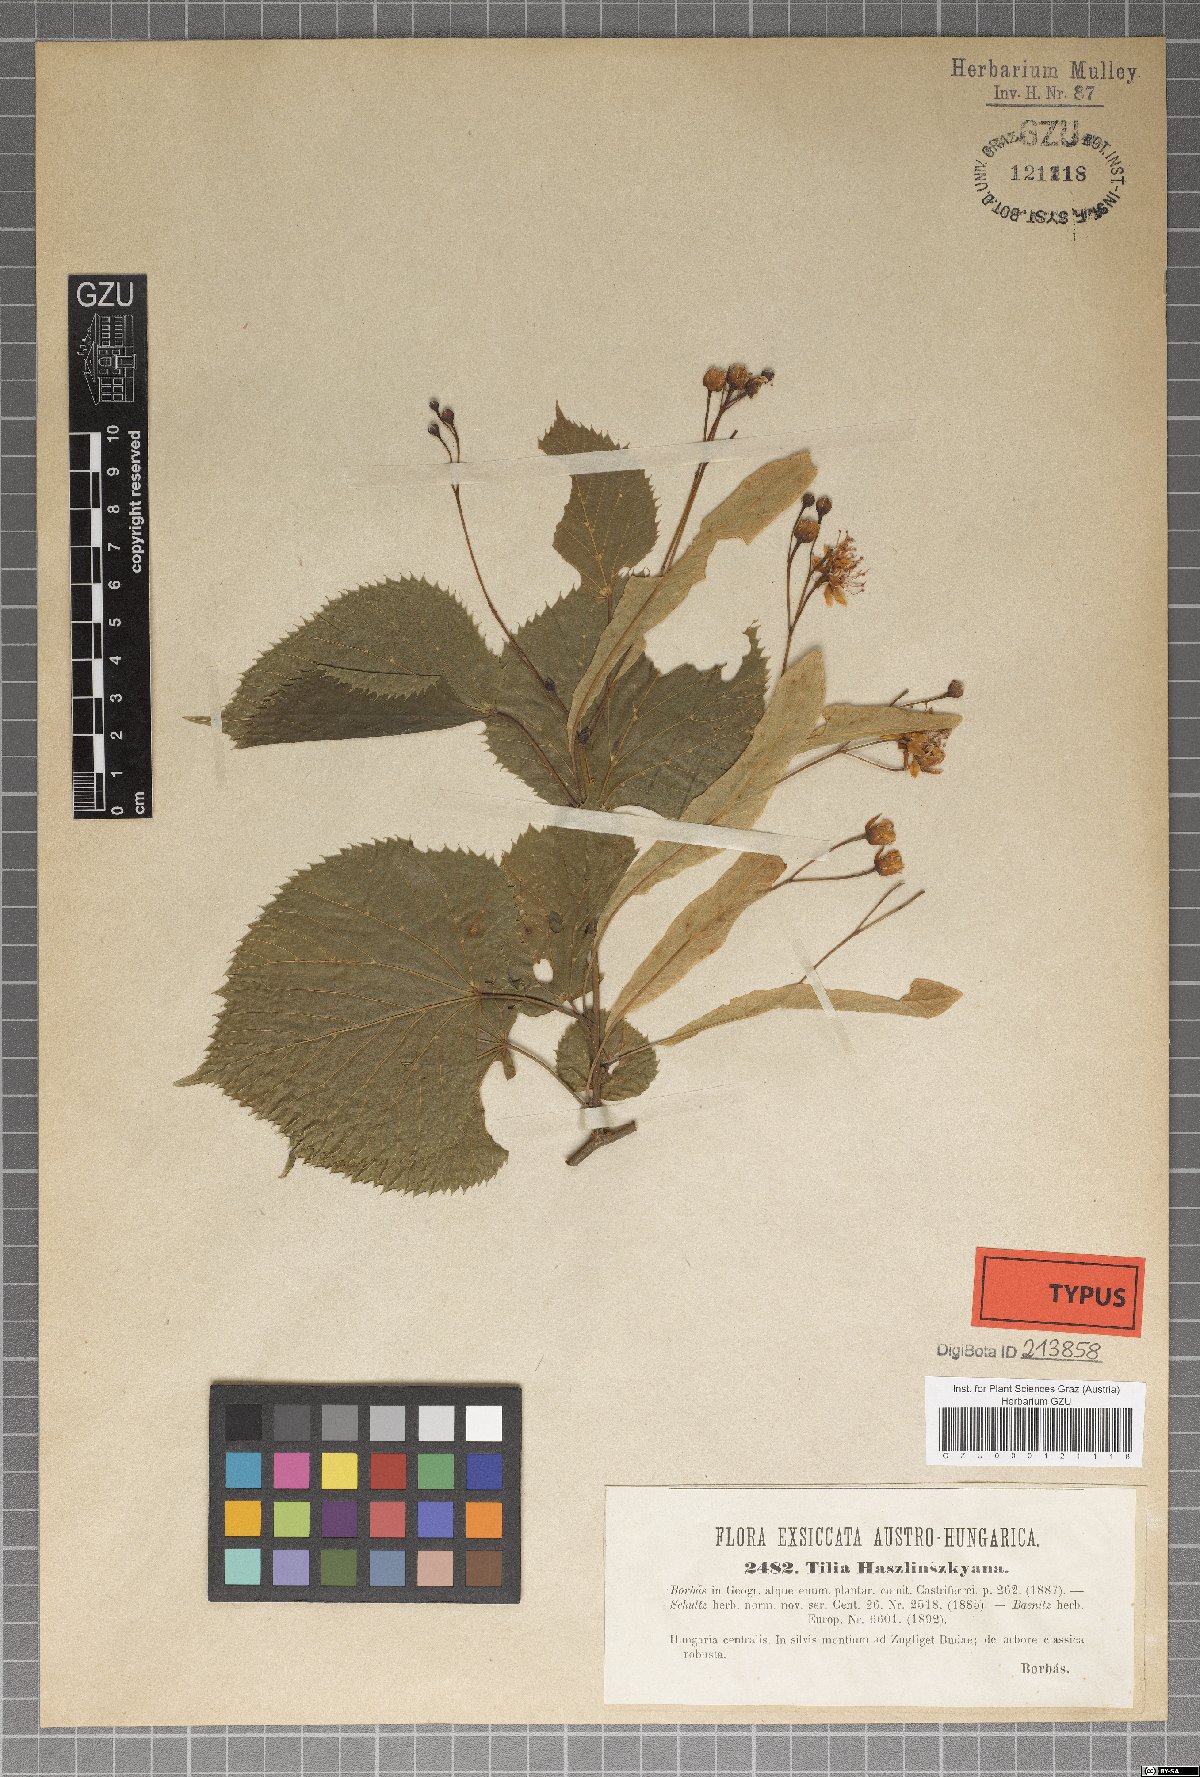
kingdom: Plantae
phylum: Tracheophyta
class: Magnoliopsida
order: Malvales
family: Malvaceae
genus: Tilia
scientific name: Tilia platyphyllos
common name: Large-leaved lime
